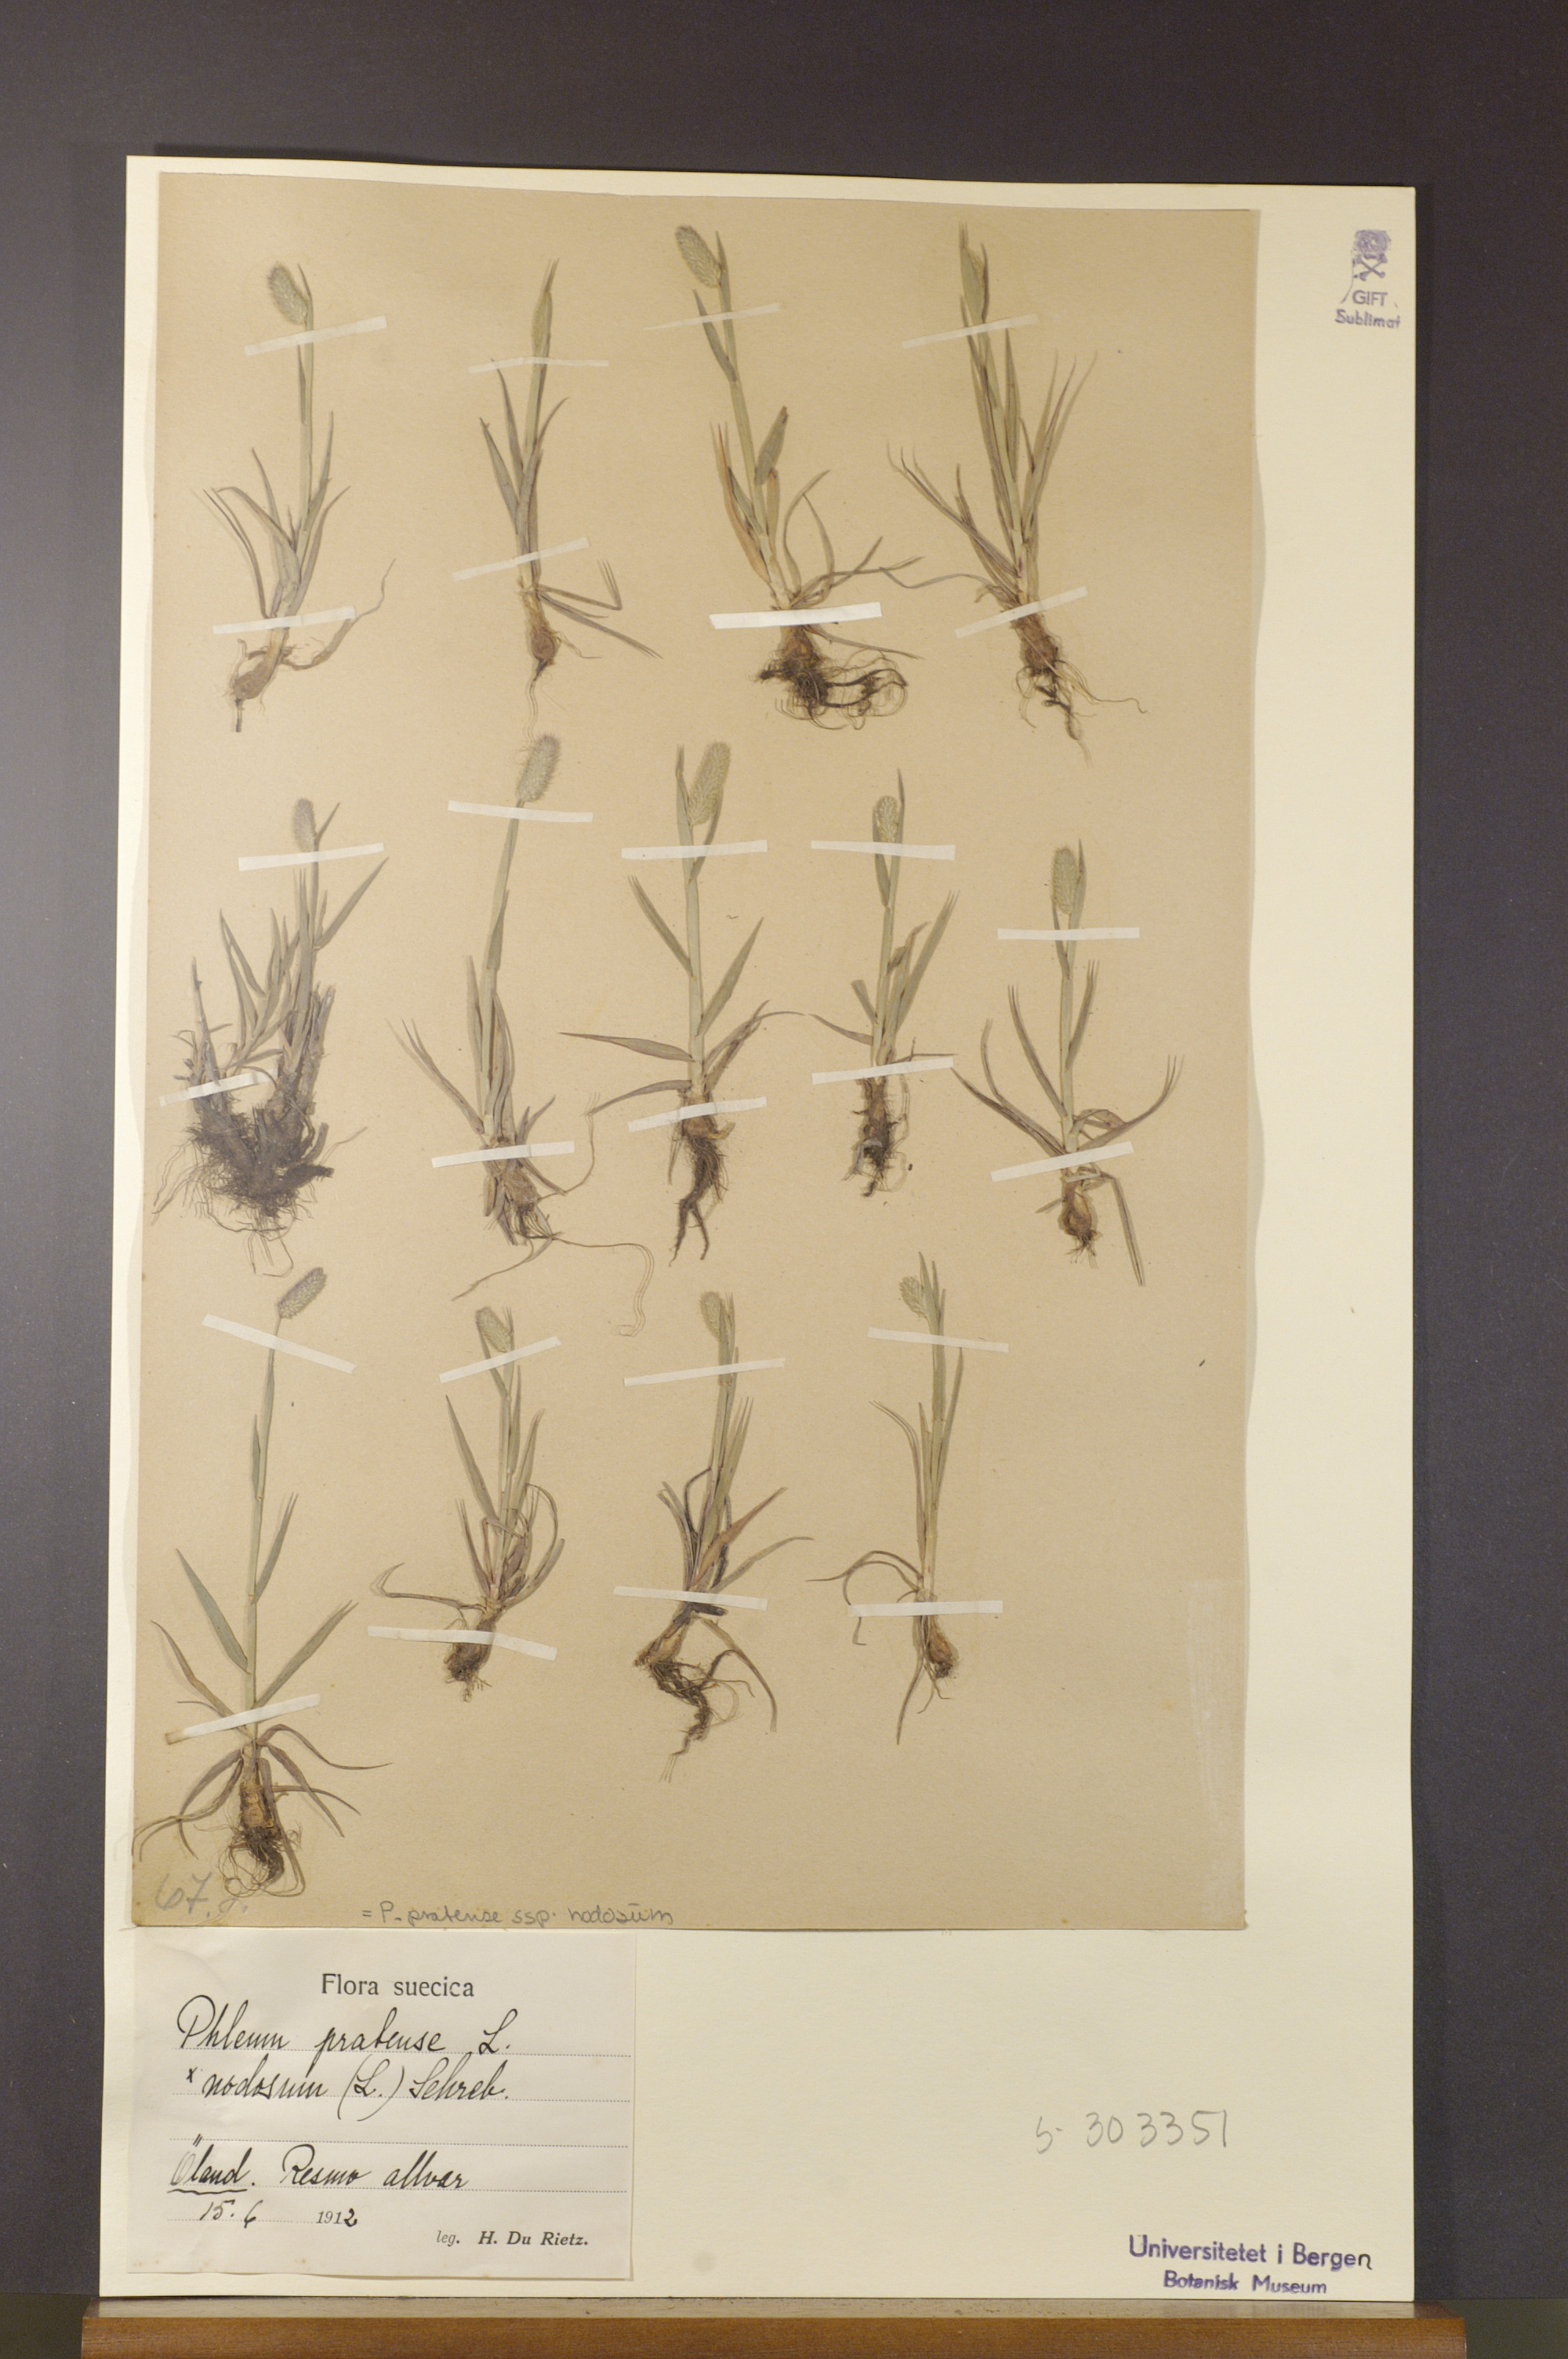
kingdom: Plantae
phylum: Tracheophyta
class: Liliopsida
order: Poales
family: Poaceae
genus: Phleum
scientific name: Phleum pratense
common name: Timothy grass
